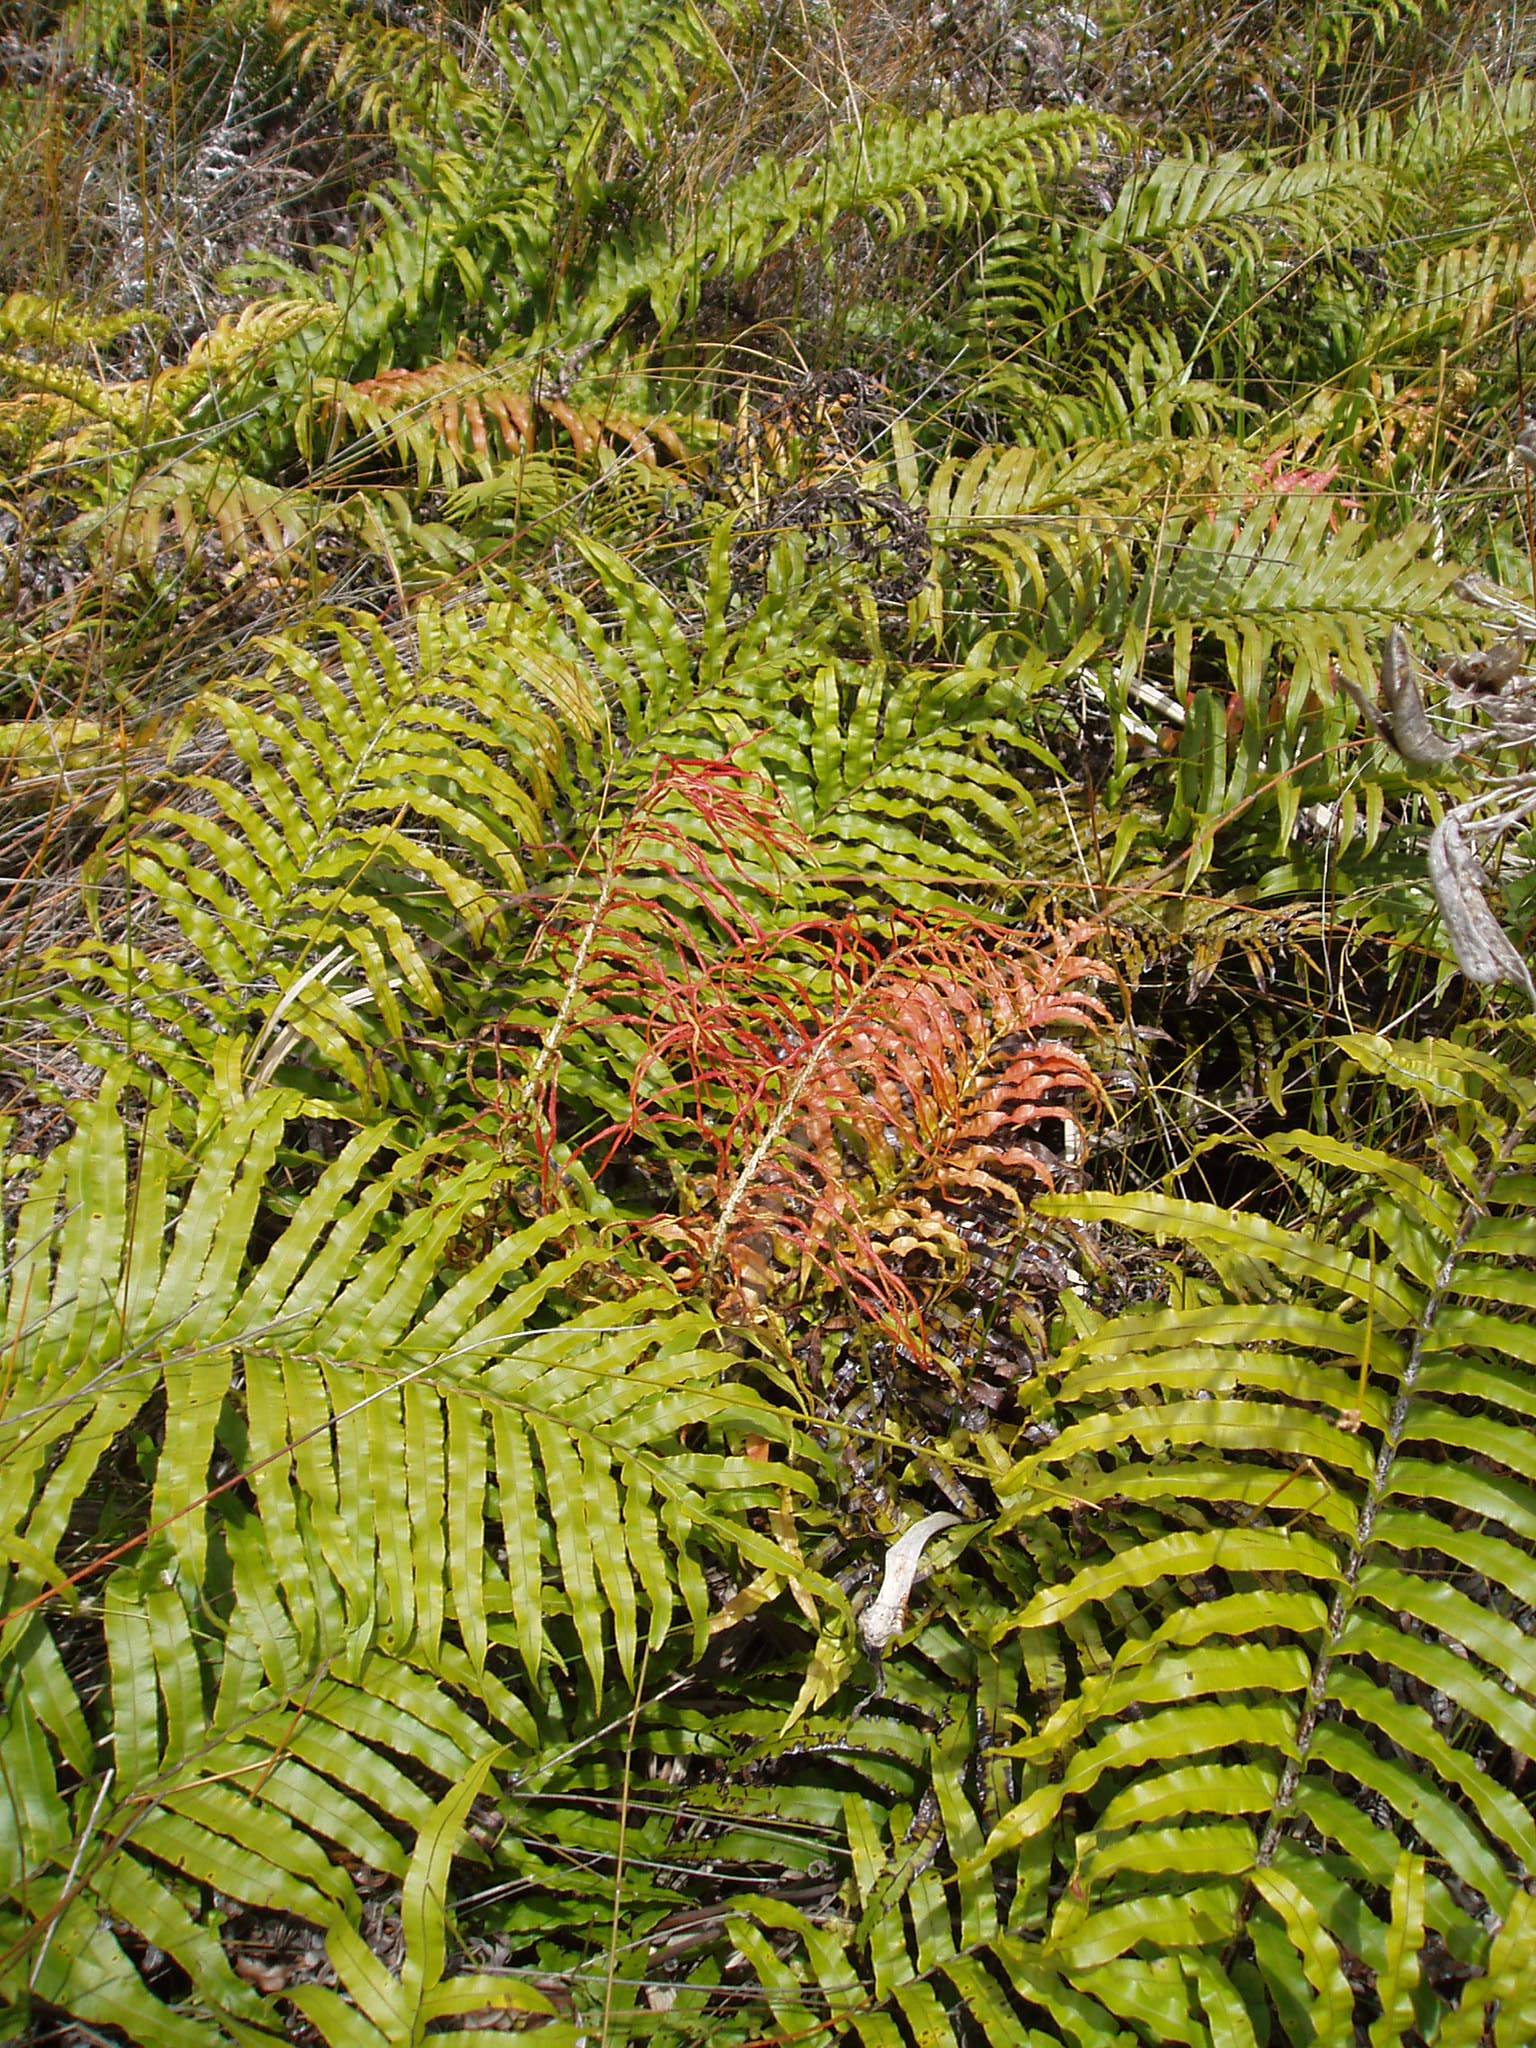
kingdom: Plantae
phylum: Tracheophyta
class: Polypodiopsida
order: Polypodiales
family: Blechnaceae
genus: Parablechnum
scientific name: Parablechnum novae-zelandiae
